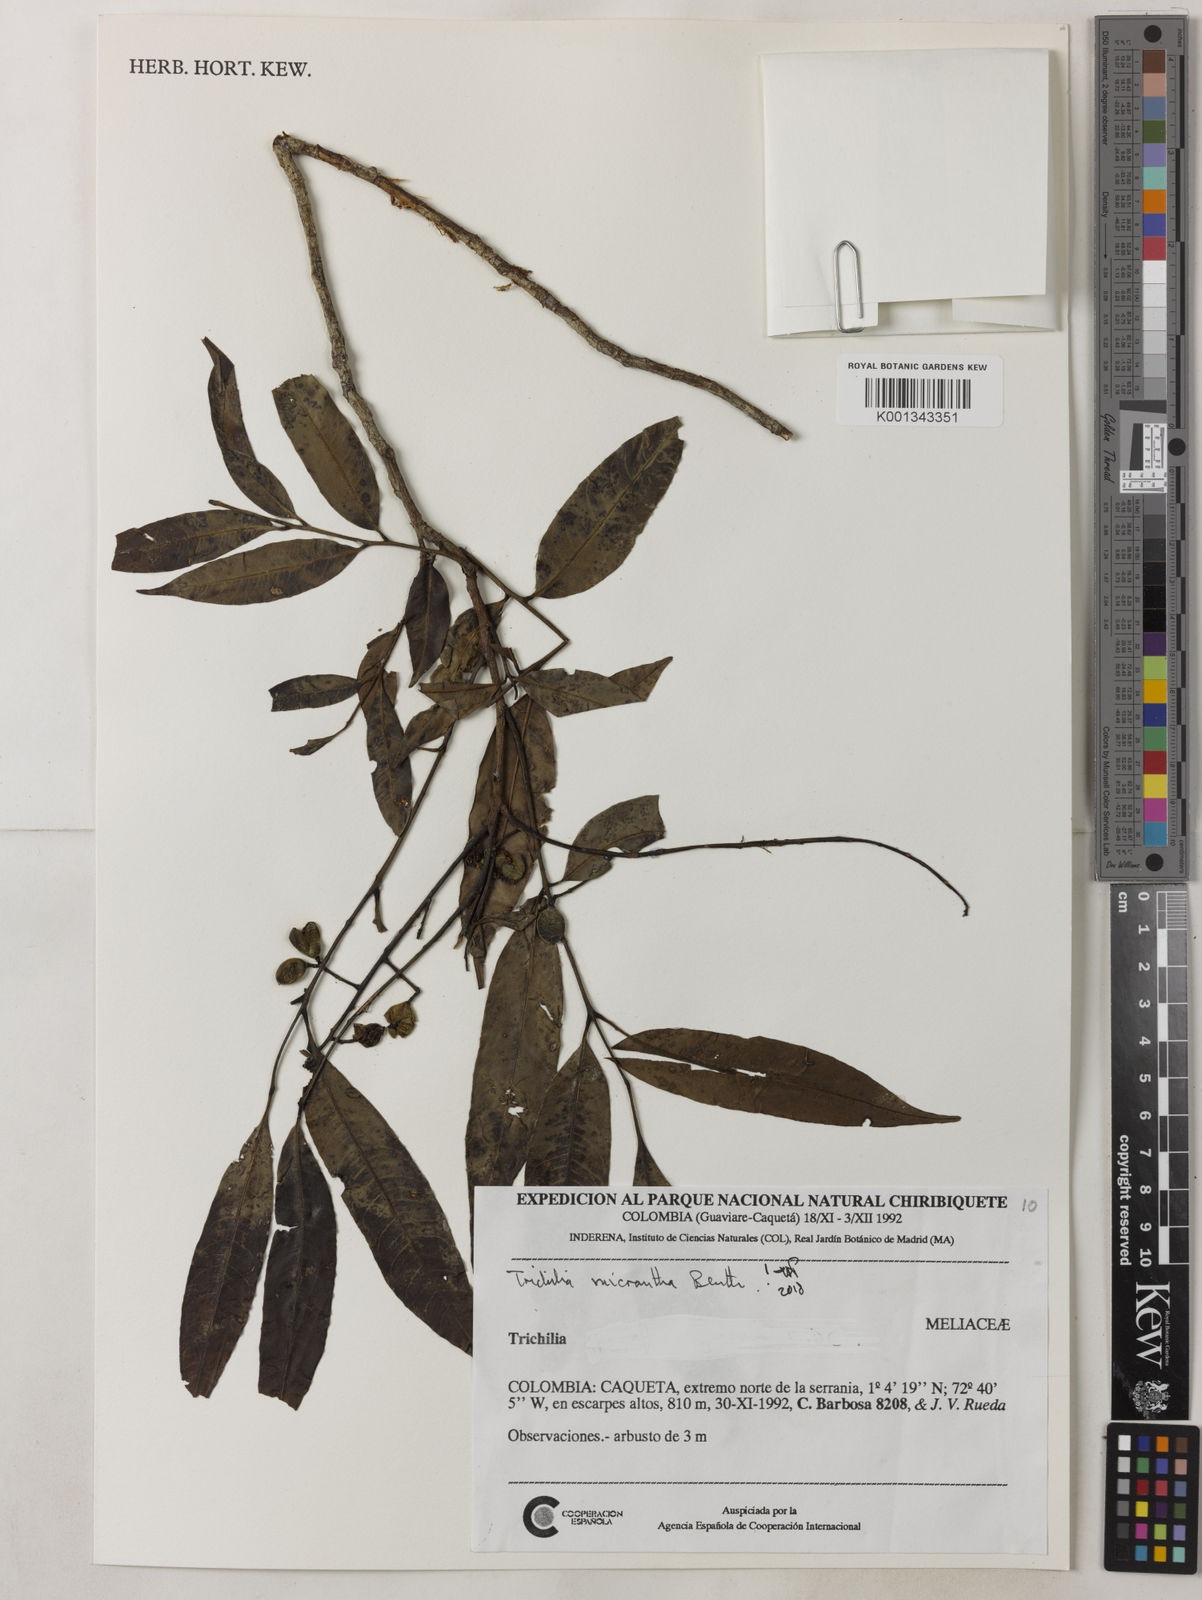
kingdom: Plantae
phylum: Tracheophyta
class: Magnoliopsida
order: Sapindales
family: Meliaceae
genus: Trichilia
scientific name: Trichilia micrantha
